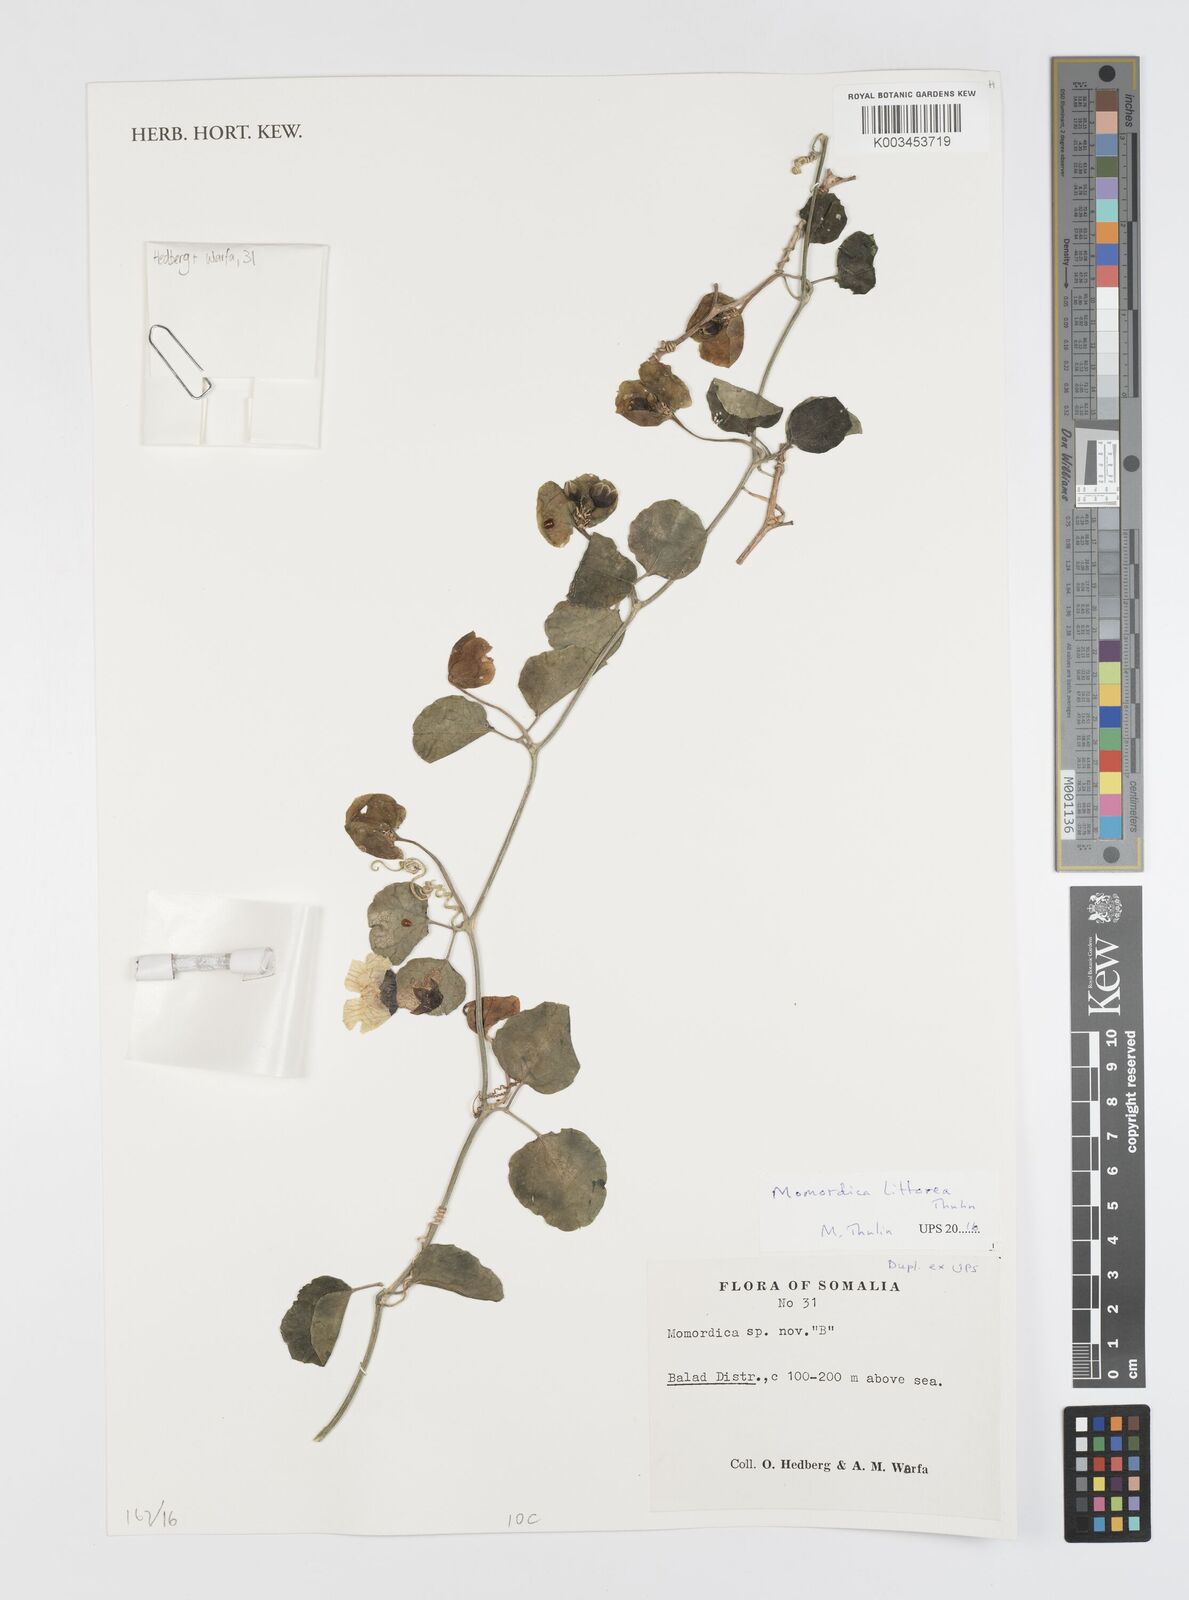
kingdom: Plantae
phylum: Tracheophyta
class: Magnoliopsida
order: Cucurbitales
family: Cucurbitaceae
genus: Momordica
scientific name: Momordica littorea
